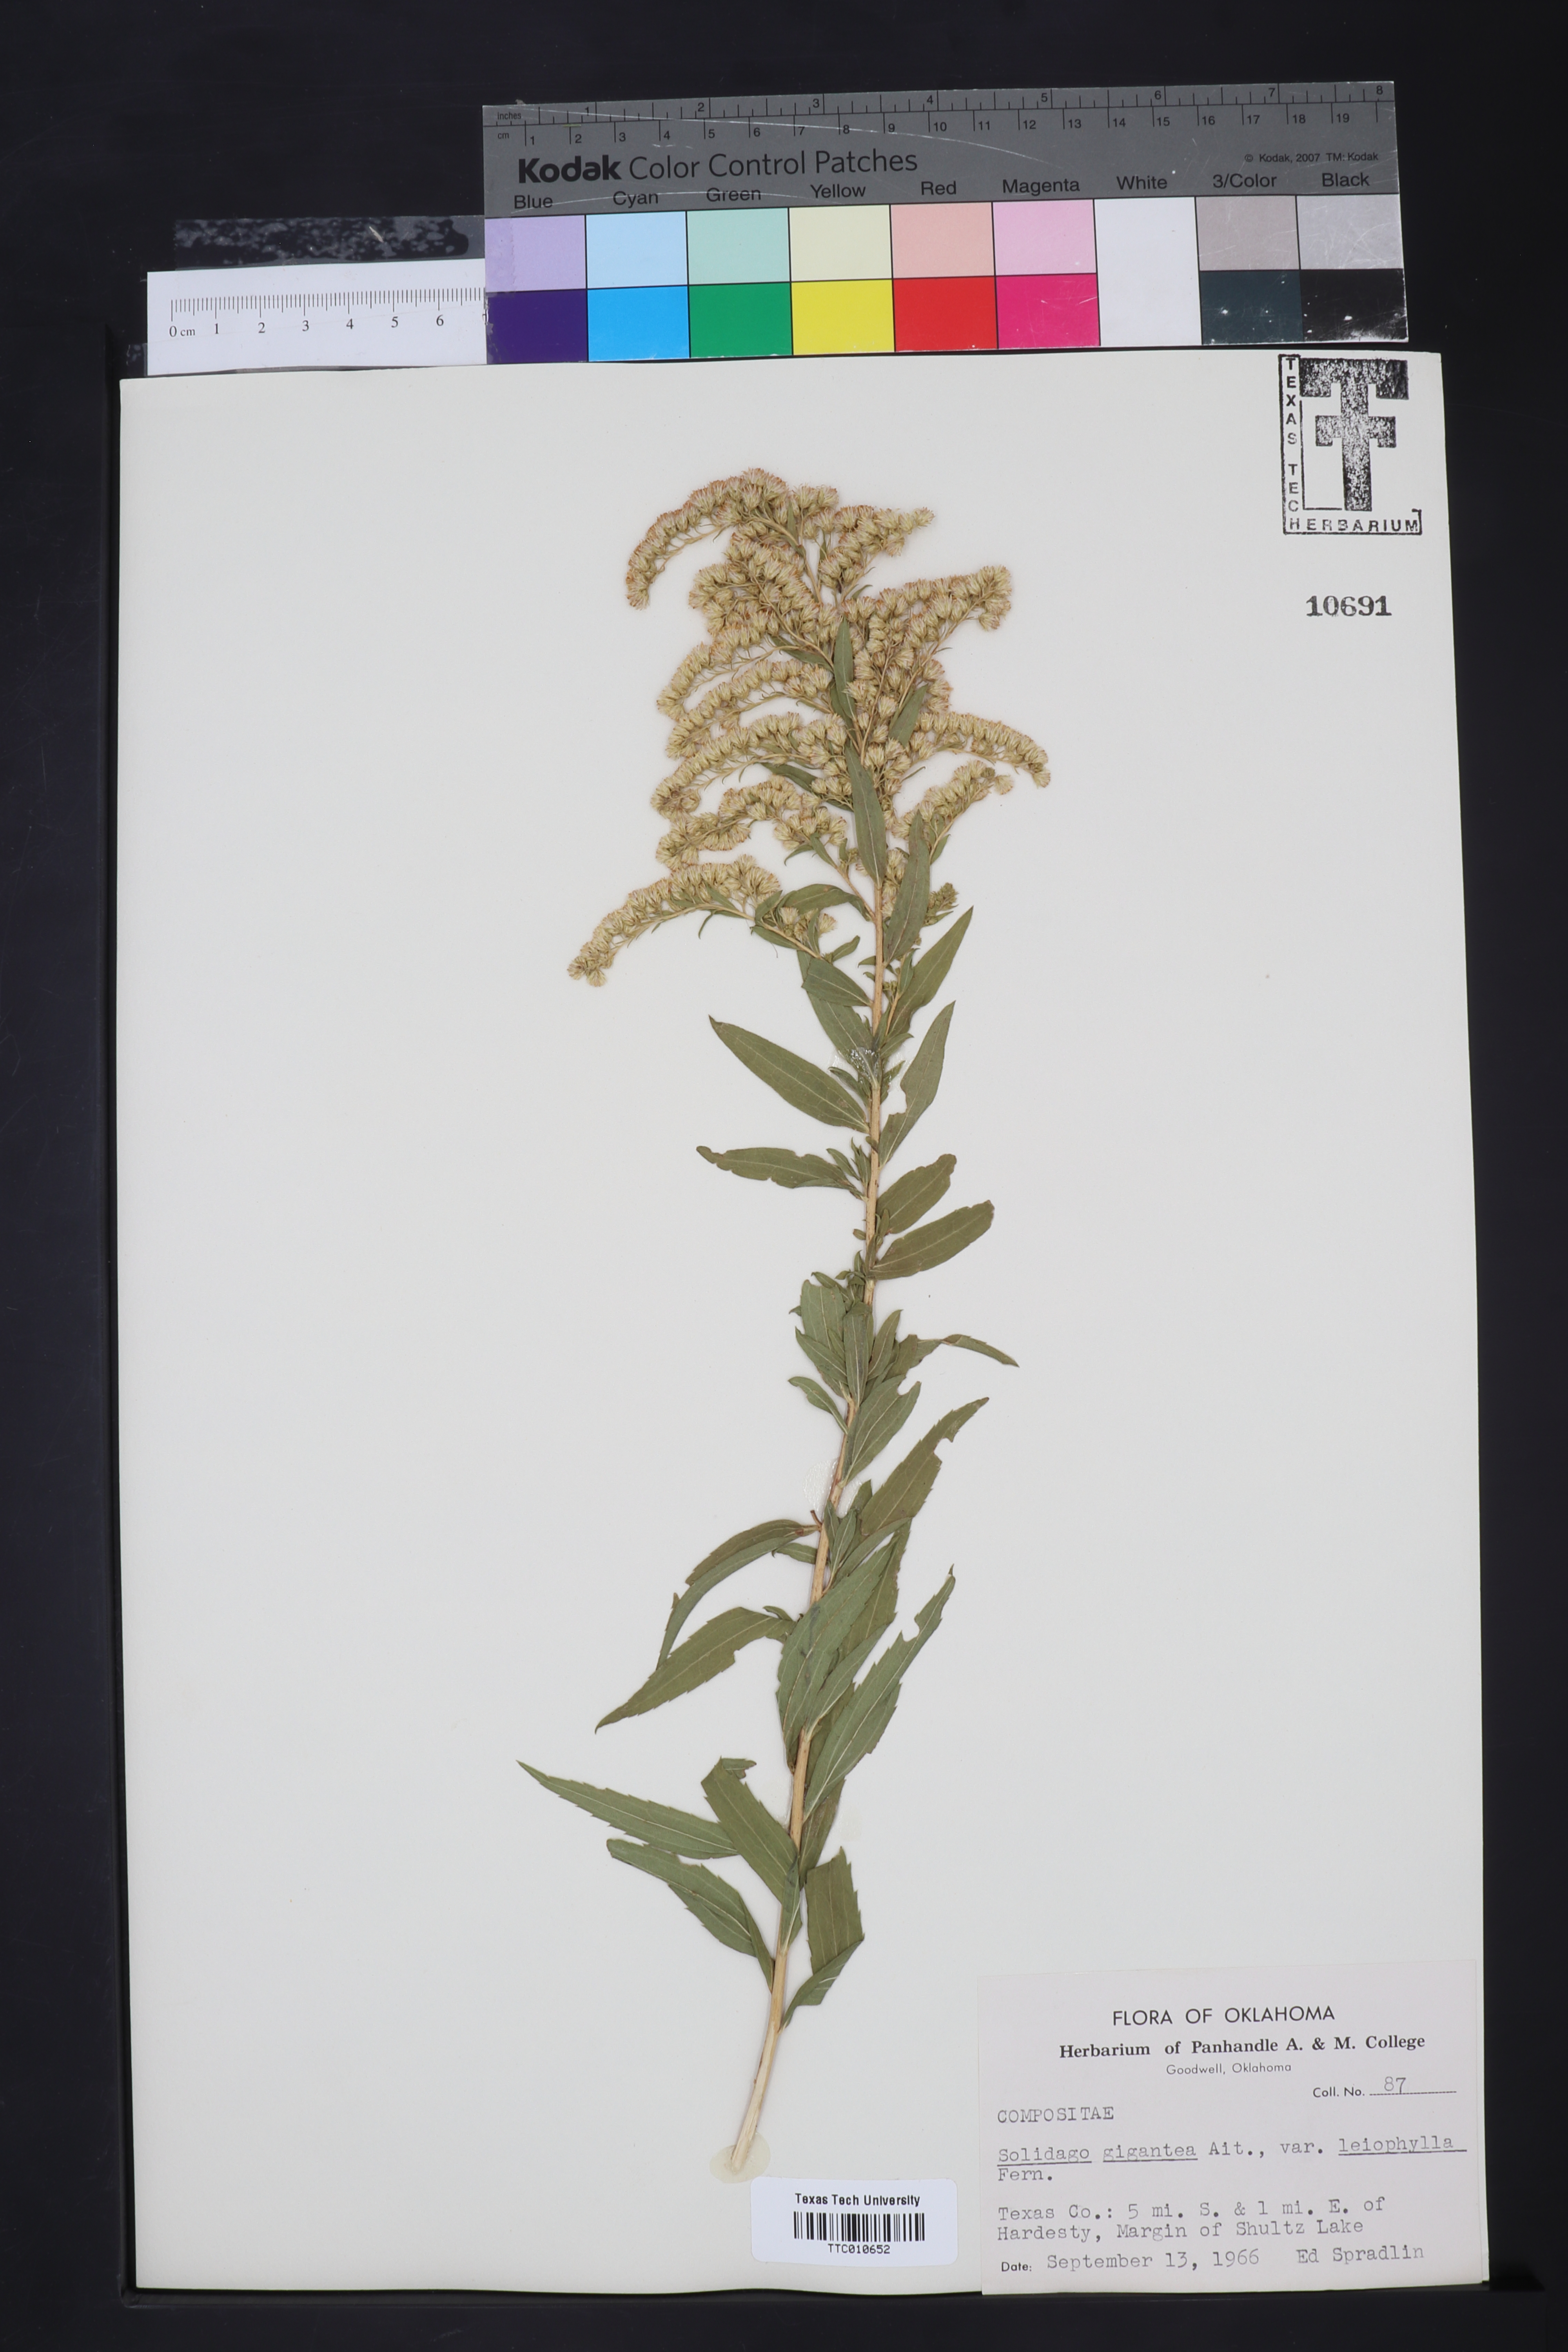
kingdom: Plantae
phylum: Tracheophyta
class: Magnoliopsida
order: Asterales
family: Asteraceae
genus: Solidago
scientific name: Solidago gigantea
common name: Giant goldenrod
